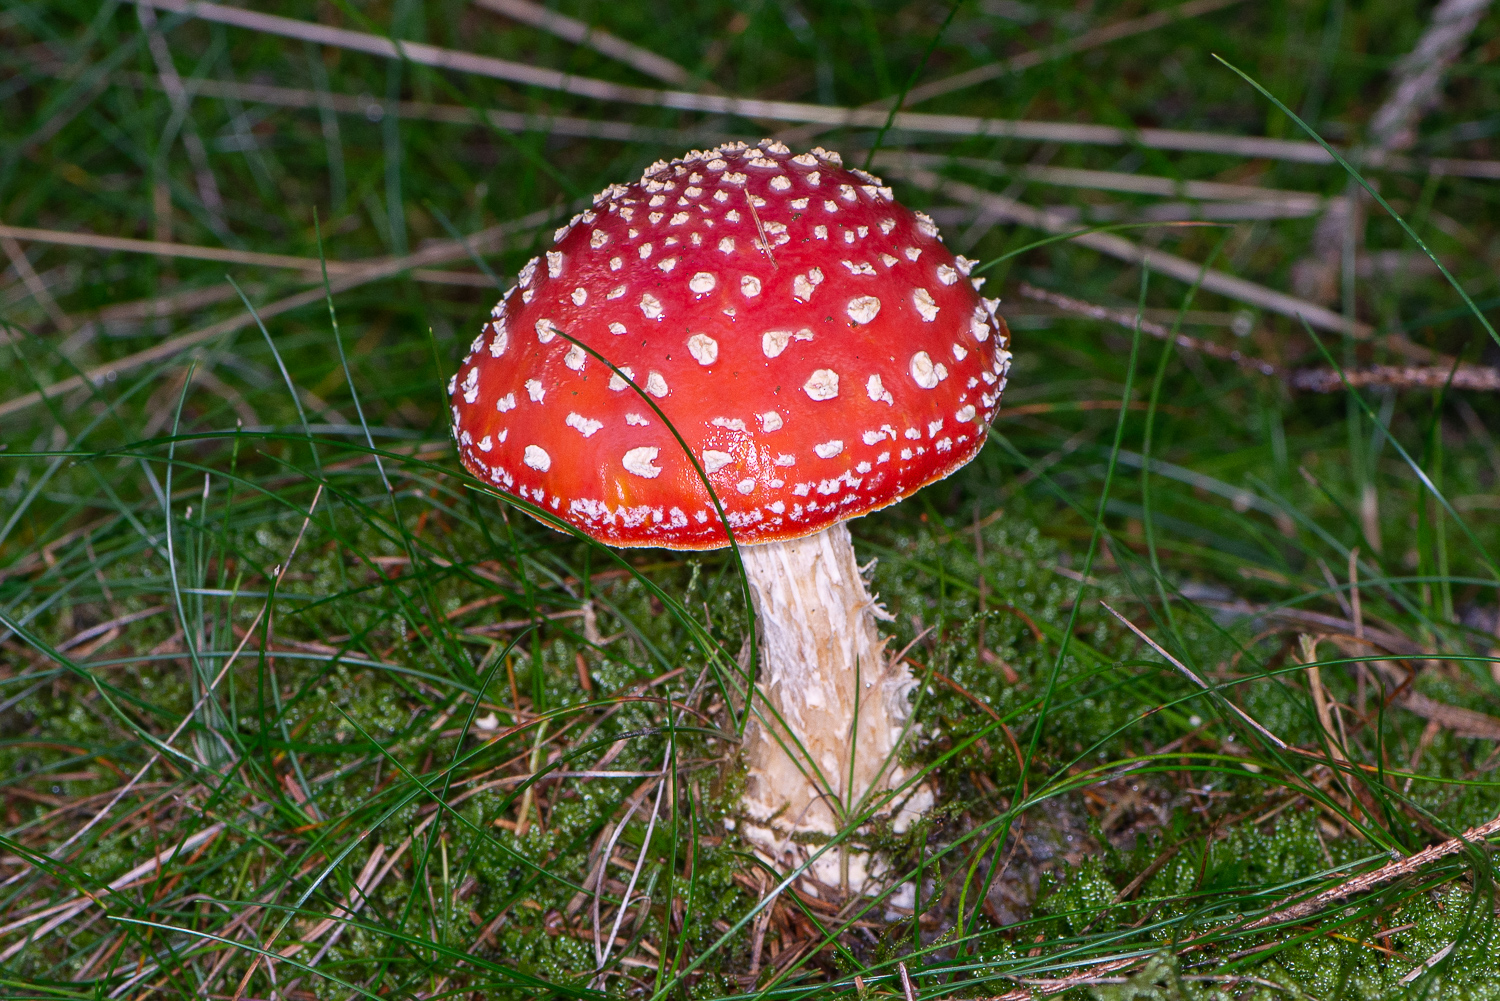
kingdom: Fungi
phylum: Basidiomycota
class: Agaricomycetes
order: Agaricales
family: Amanitaceae
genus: Amanita
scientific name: Amanita muscaria
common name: rød fluesvamp
